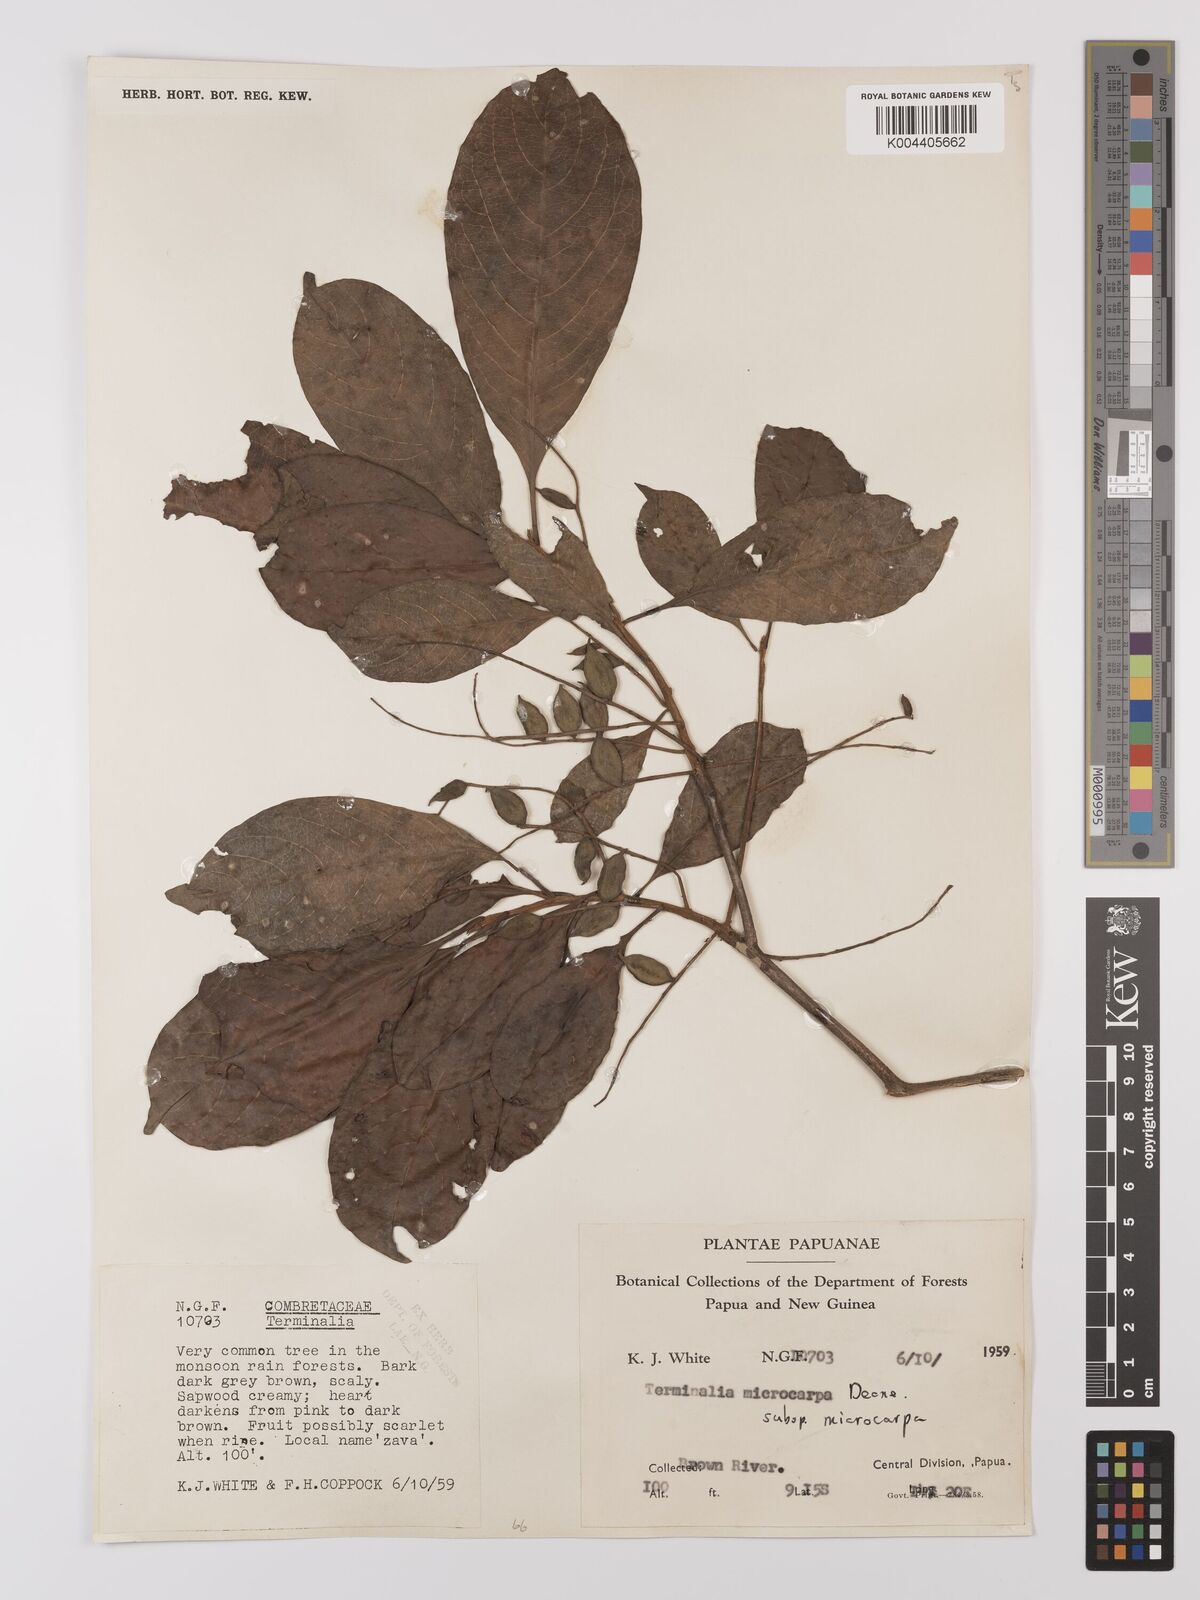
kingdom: Plantae
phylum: Tracheophyta
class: Magnoliopsida
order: Myrtales
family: Combretaceae
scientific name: Combretaceae
